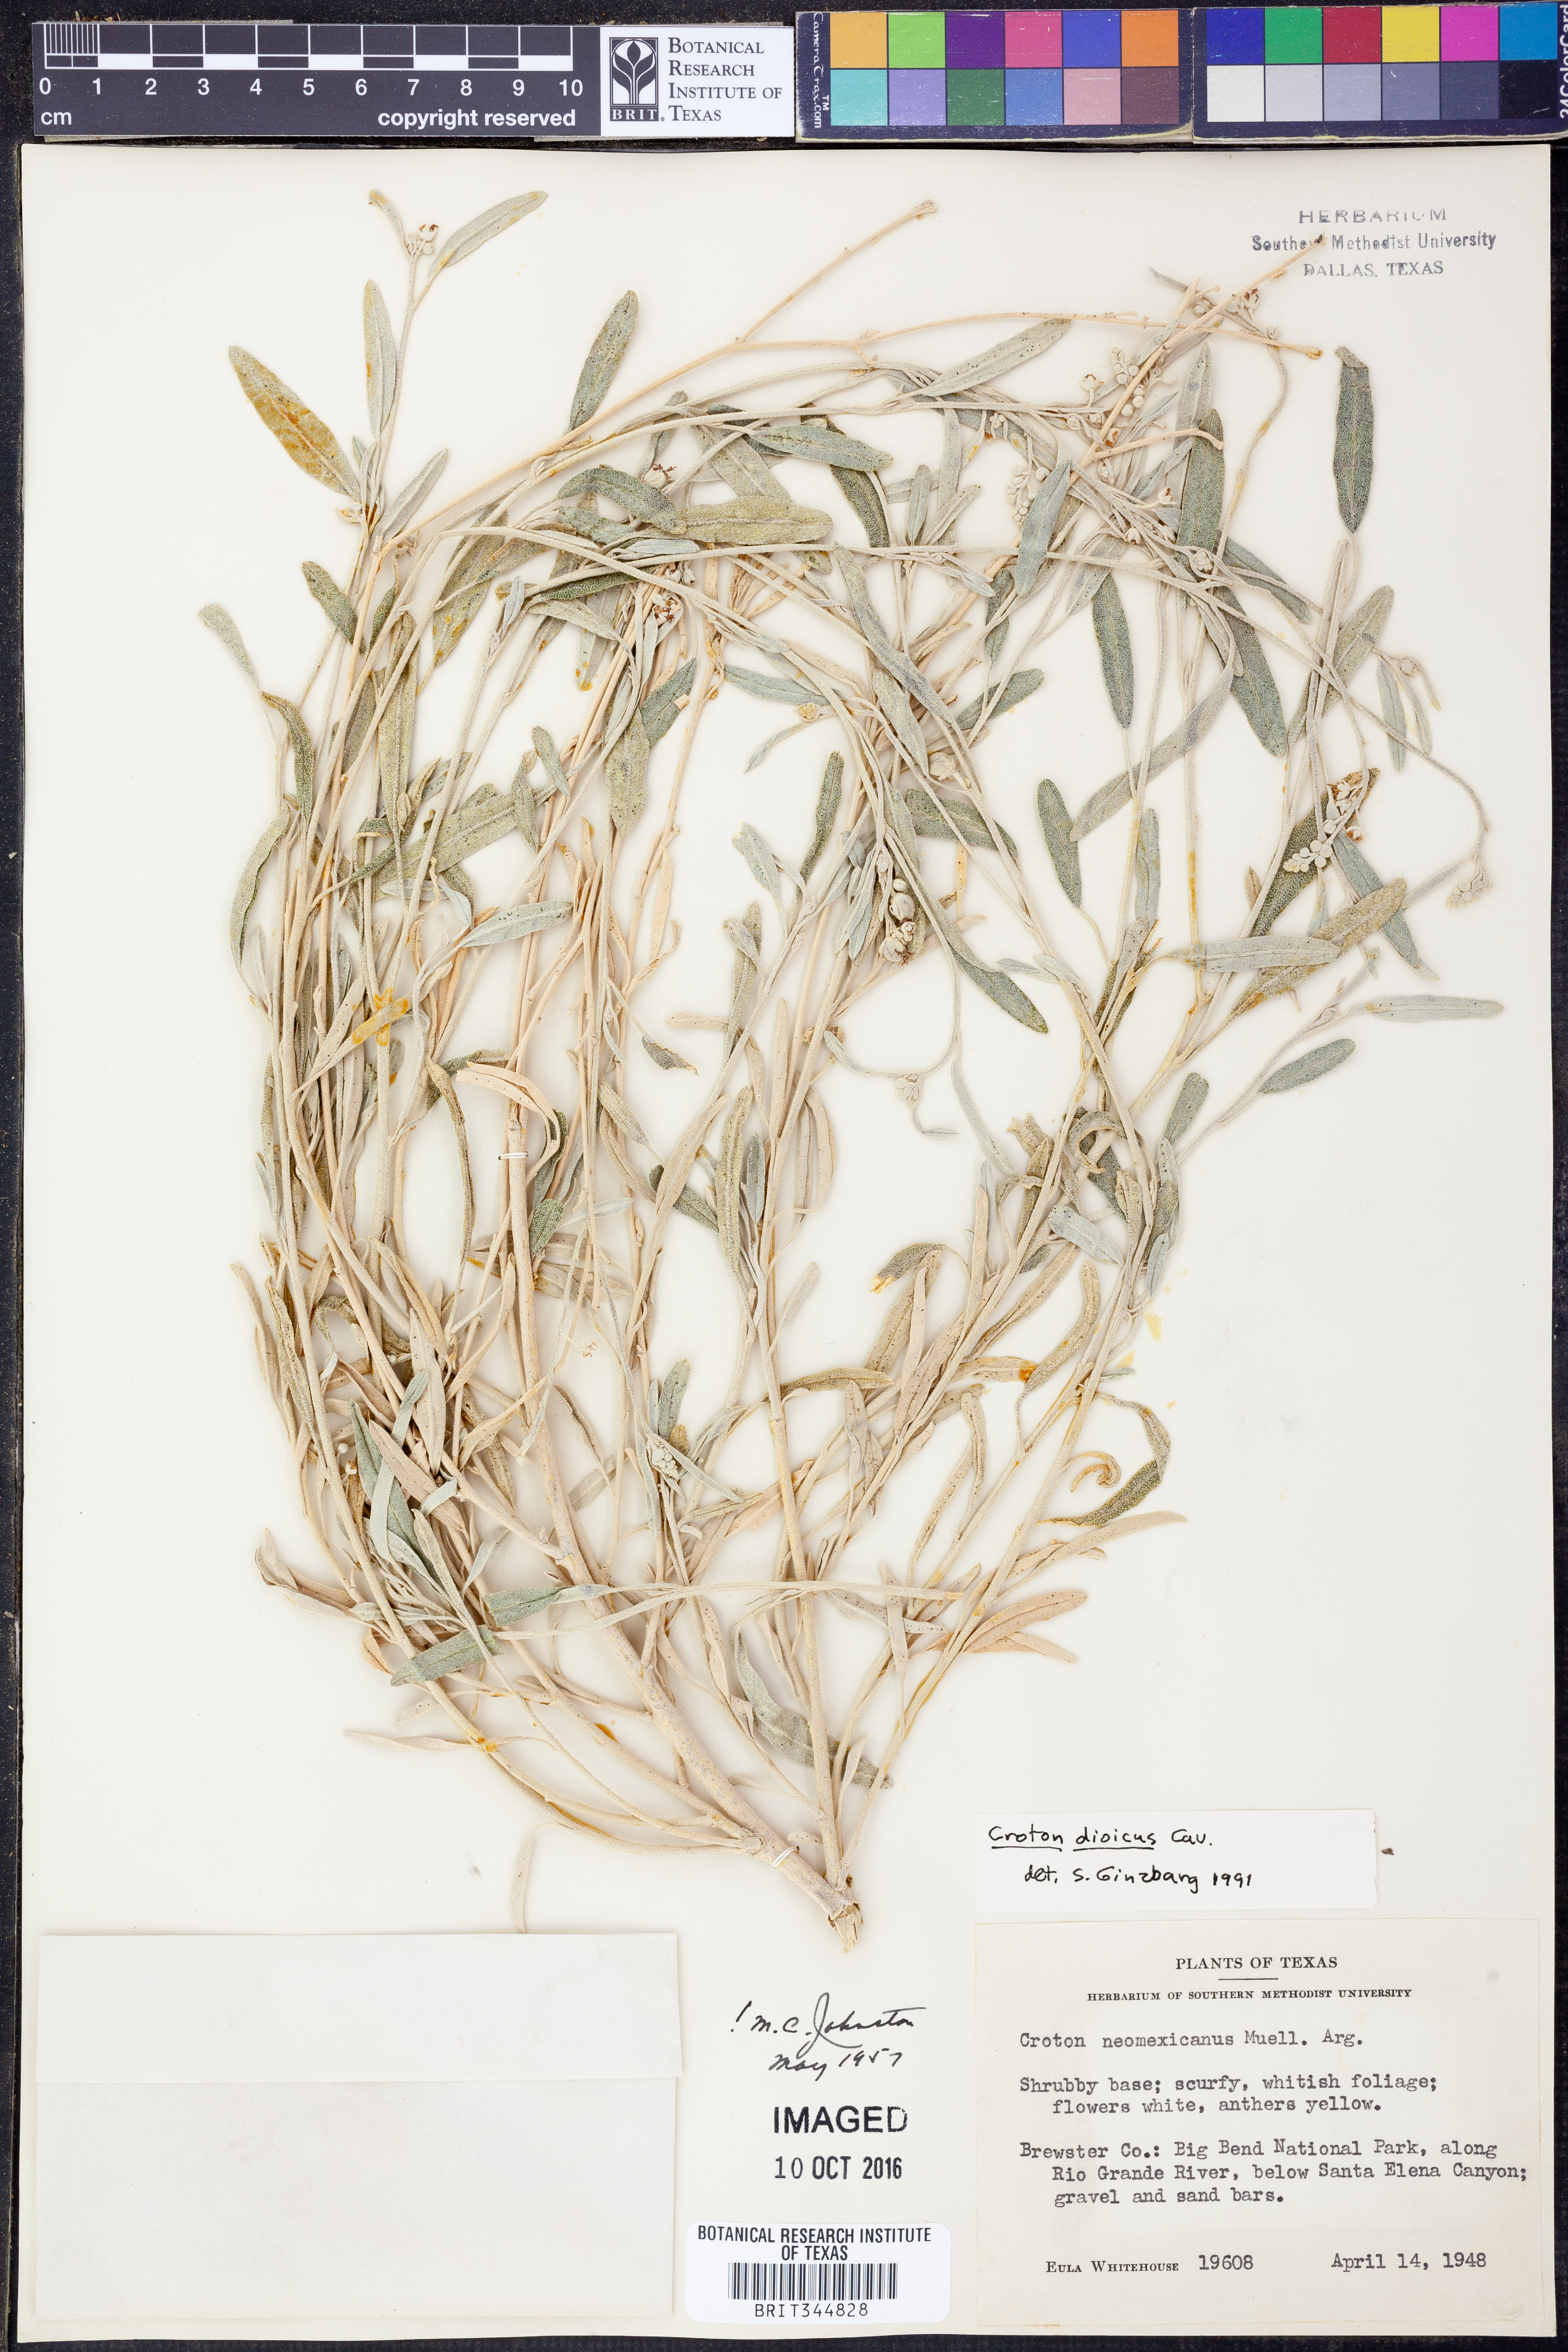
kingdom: Plantae
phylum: Tracheophyta
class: Magnoliopsida
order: Malpighiales
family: Euphorbiaceae
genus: Croton
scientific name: Croton dioicus
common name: Grassland croton
